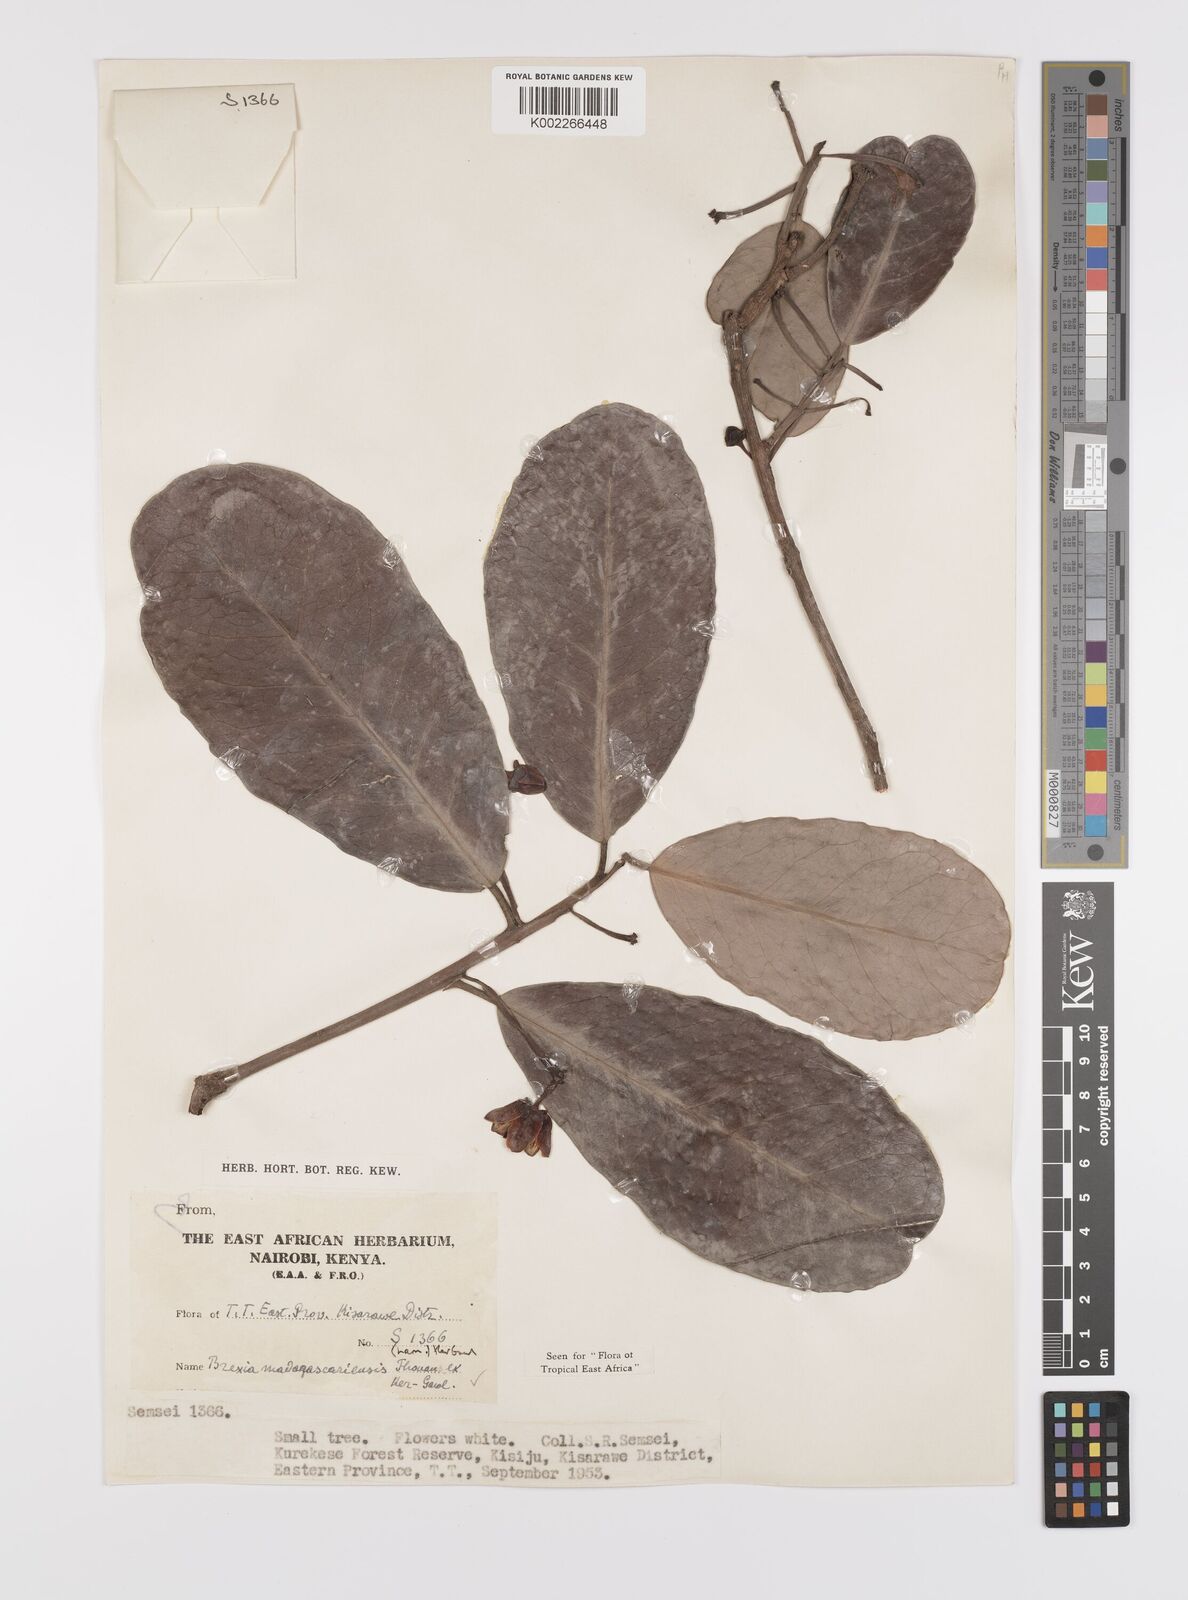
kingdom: Plantae
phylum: Tracheophyta
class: Magnoliopsida
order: Celastrales
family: Celastraceae
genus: Brexia
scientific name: Brexia madagascariensis
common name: Brexia
